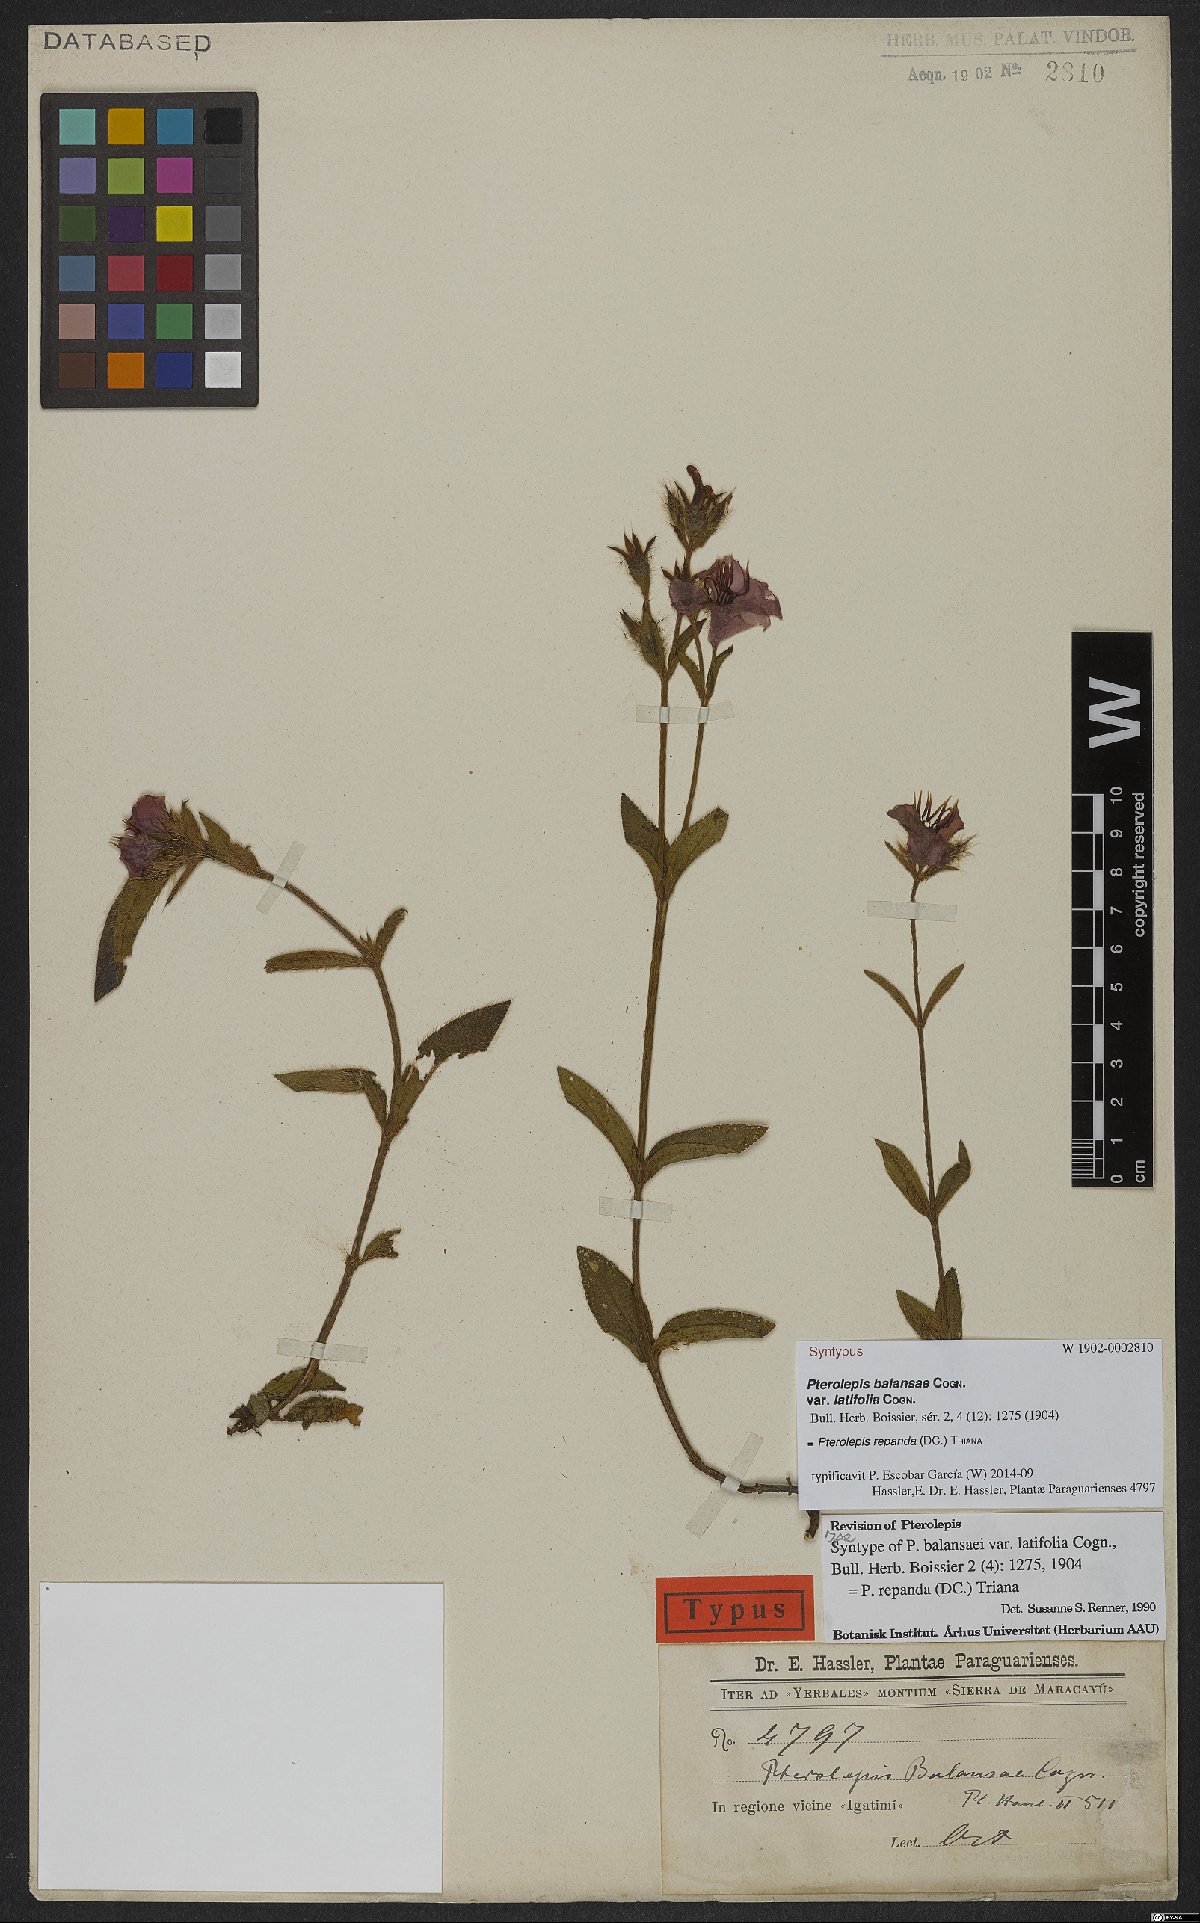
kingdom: Plantae
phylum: Tracheophyta
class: Magnoliopsida
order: Myrtales
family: Melastomataceae
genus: Pterolepis
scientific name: Pterolepis repanda
